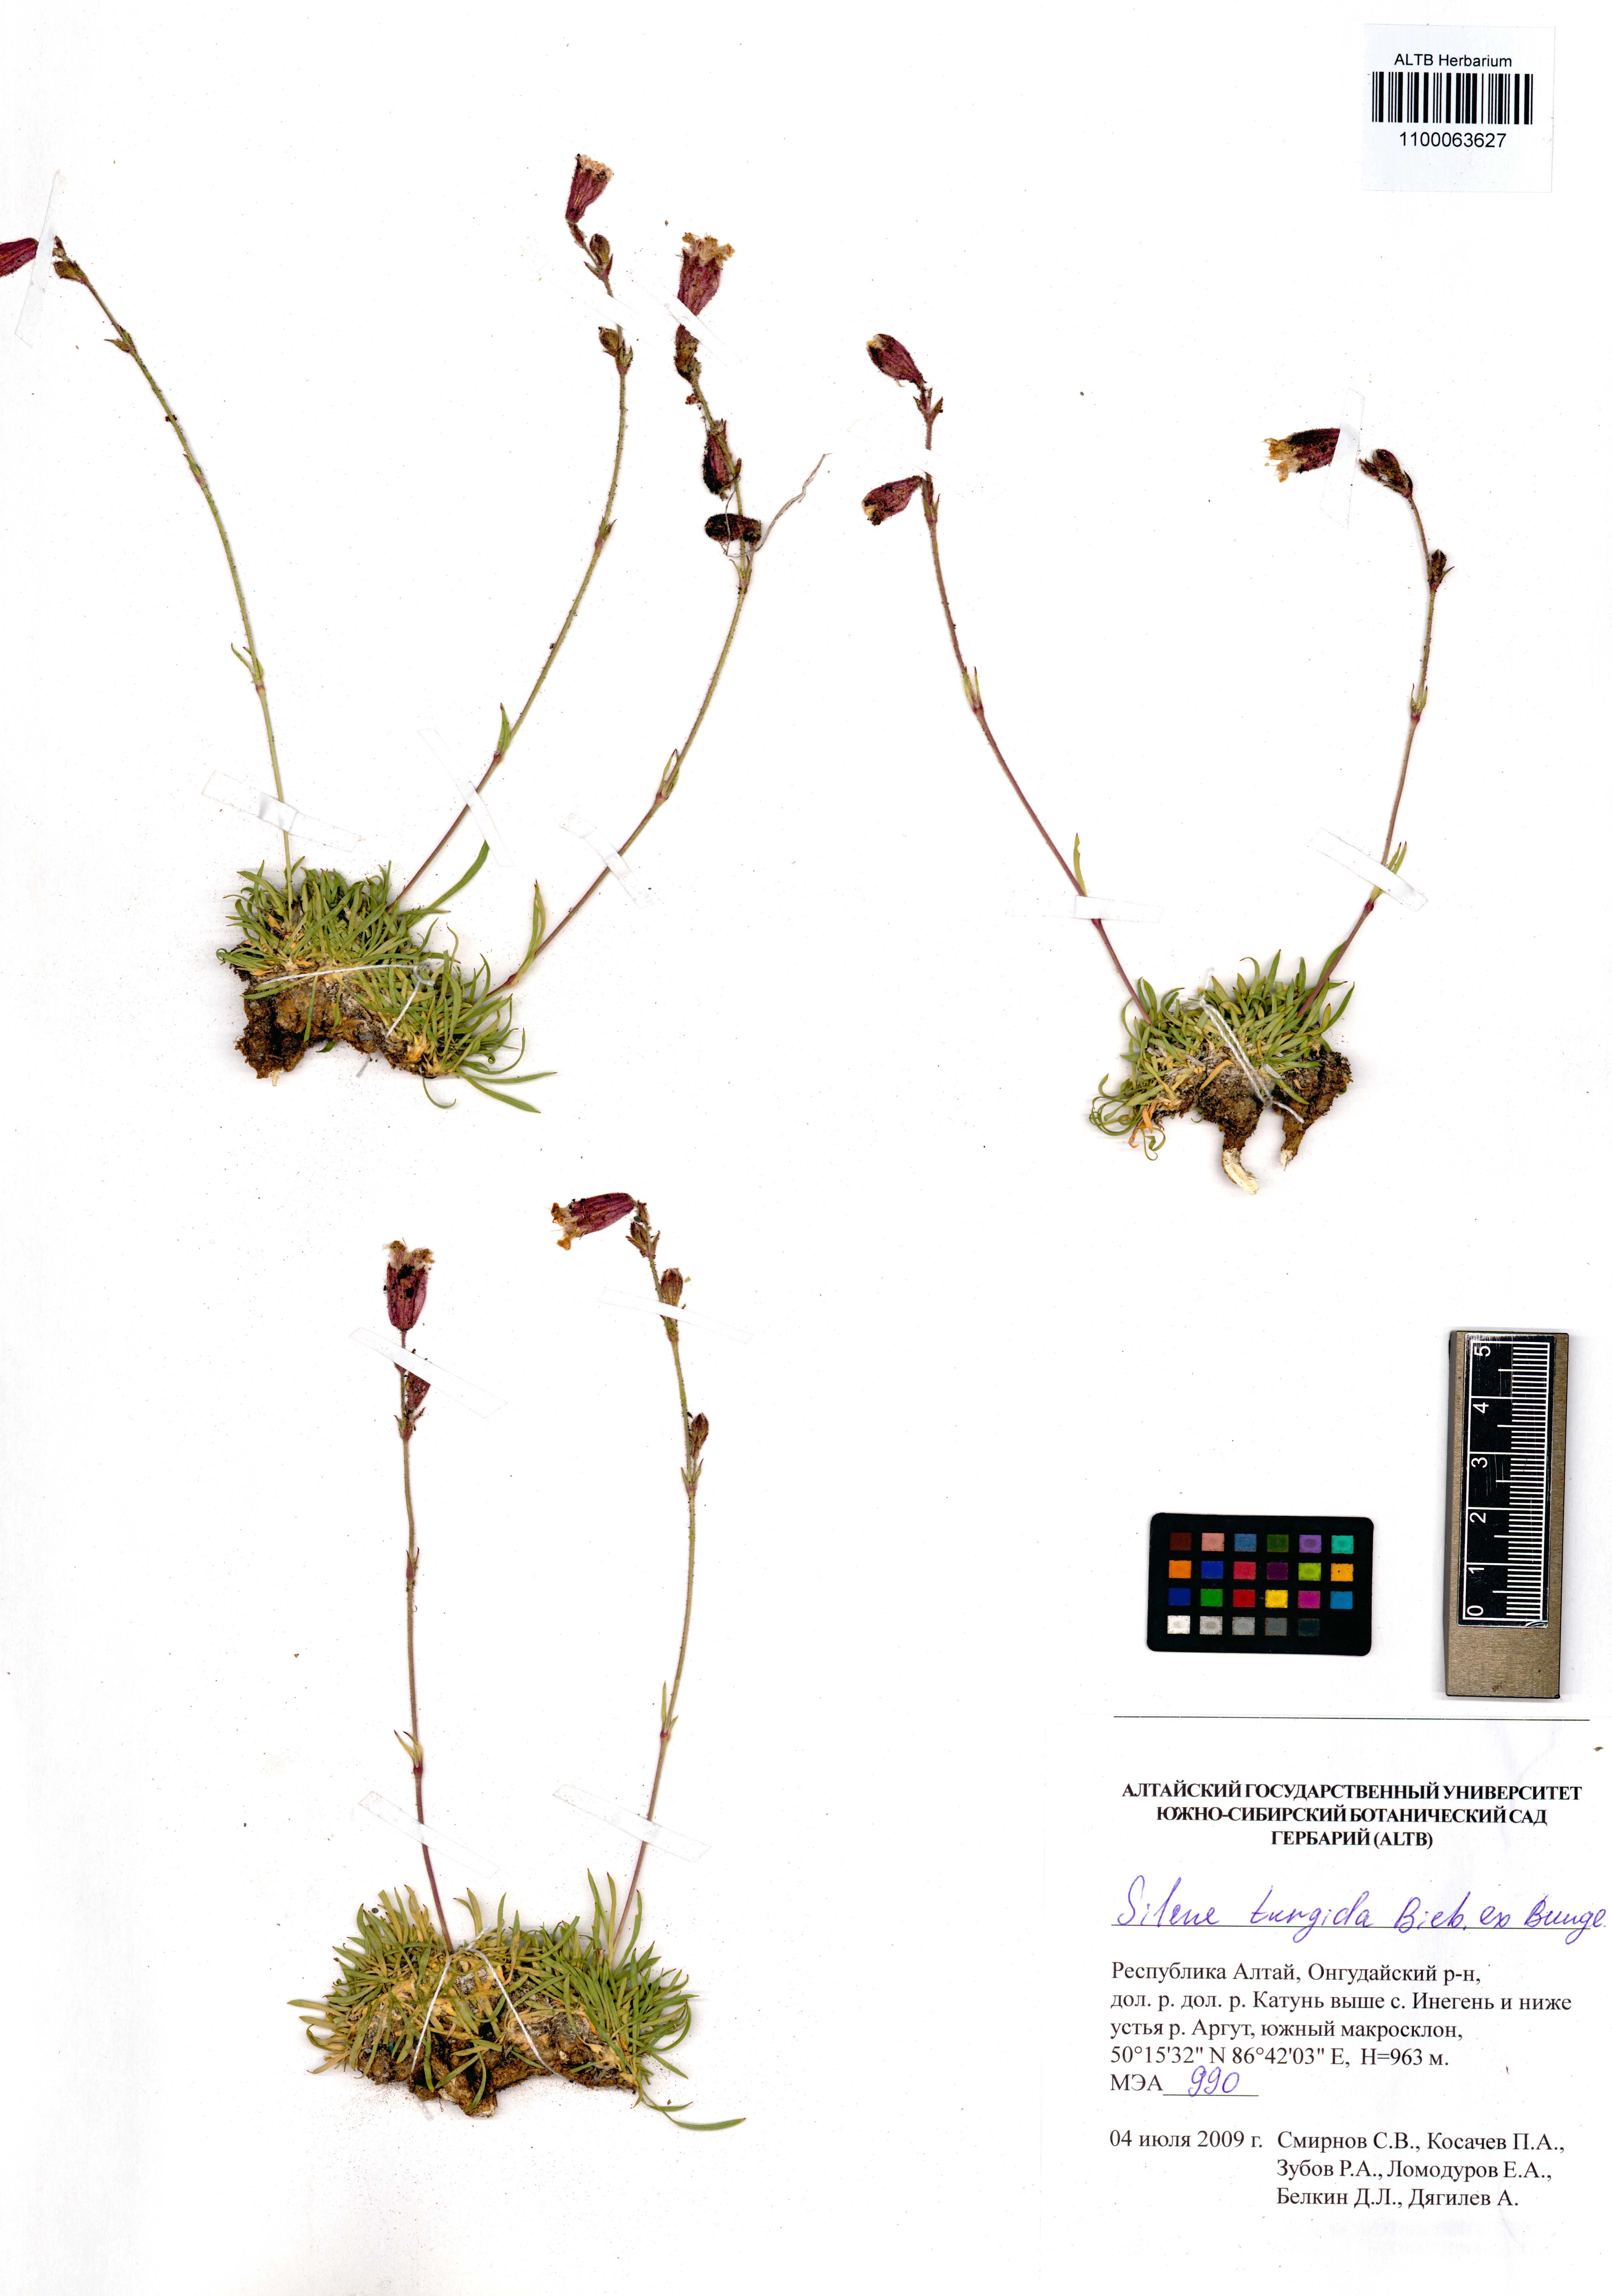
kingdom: Plantae
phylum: Tracheophyta
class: Magnoliopsida
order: Caryophyllales
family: Caryophyllaceae
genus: Silene
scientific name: Silene turgida
